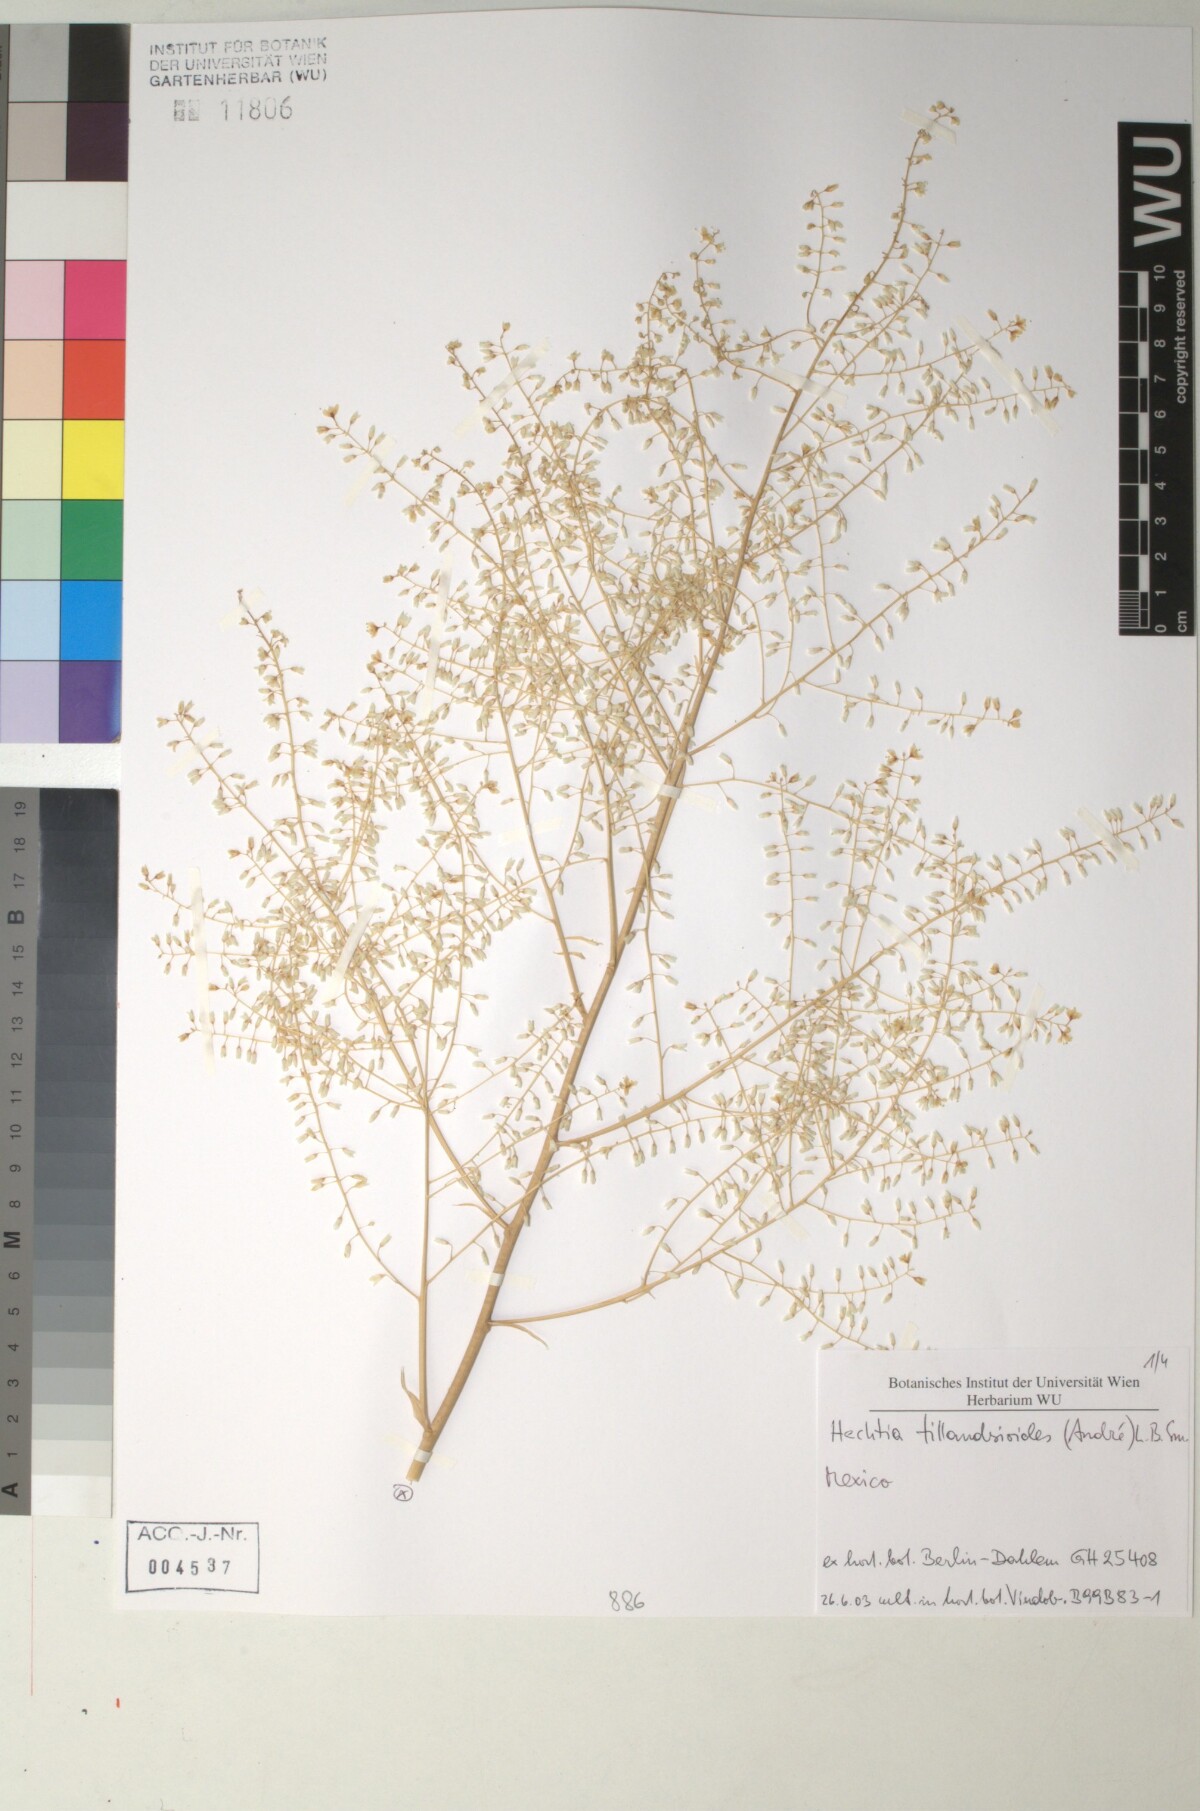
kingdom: Plantae
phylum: Tracheophyta
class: Liliopsida
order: Poales
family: Bromeliaceae
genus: Hechtia
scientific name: Hechtia
